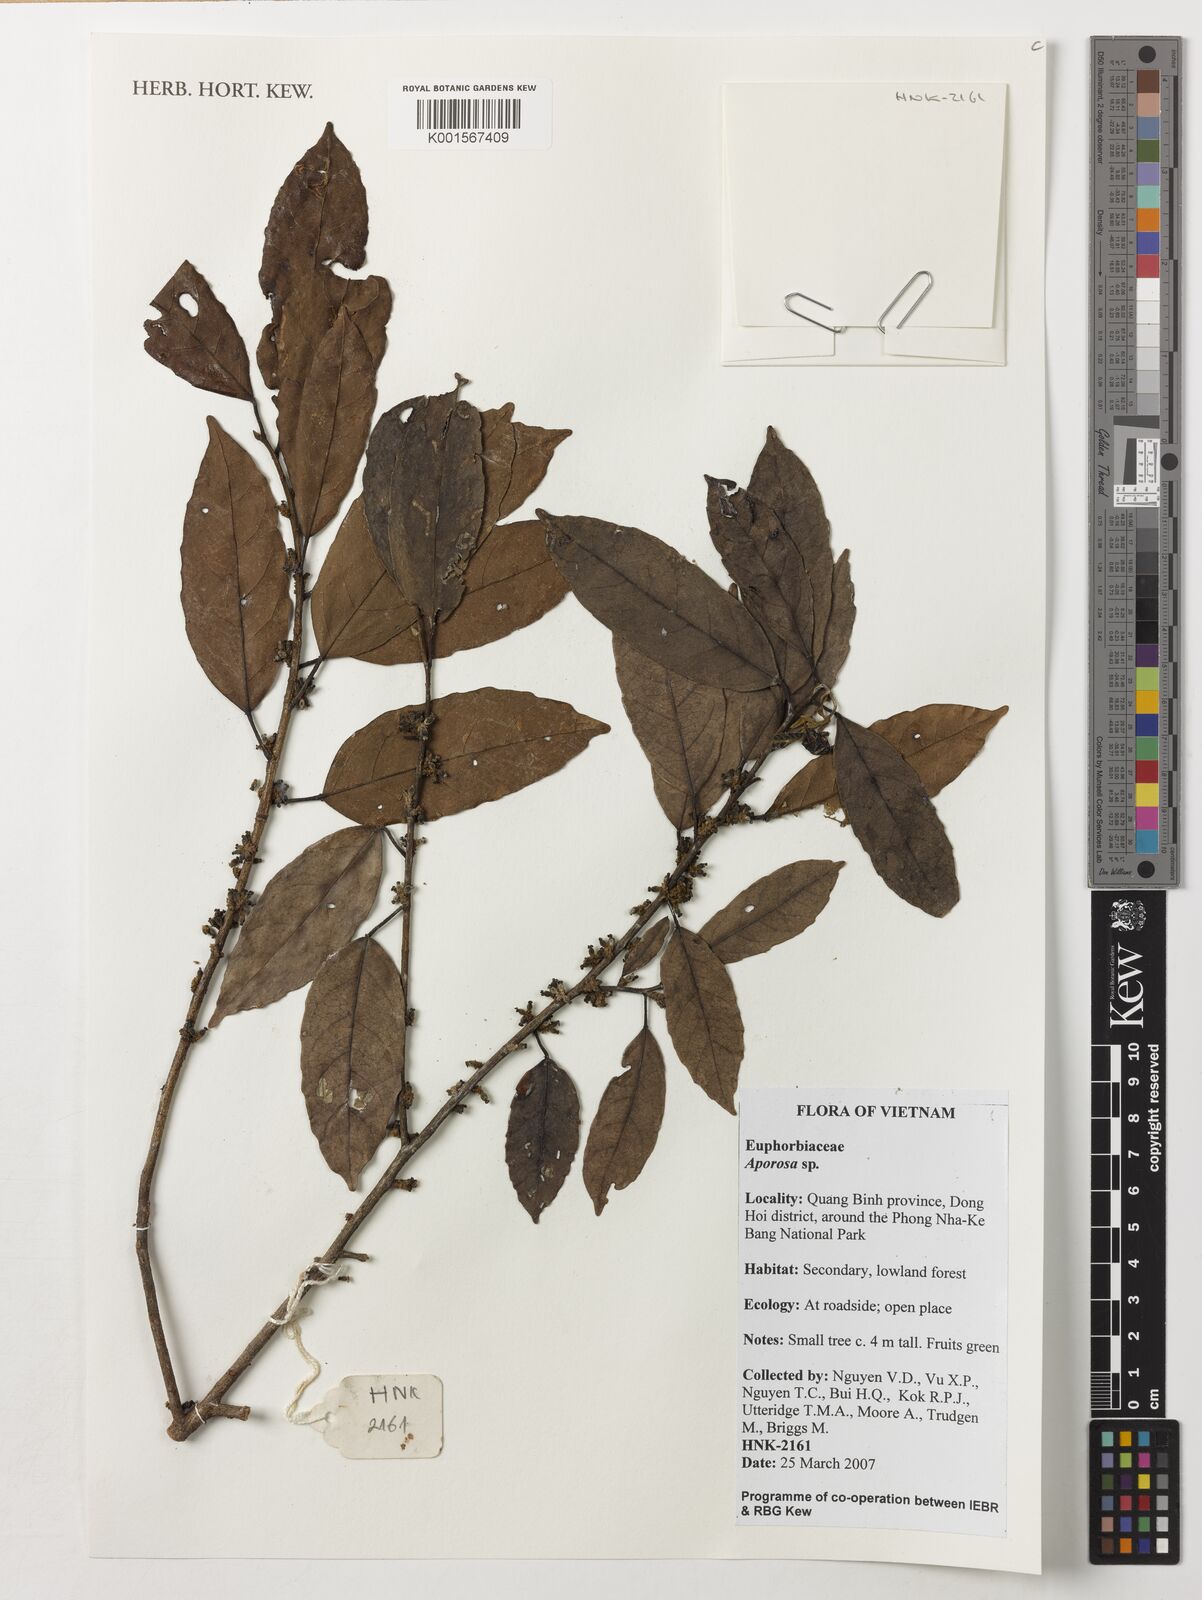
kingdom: Plantae
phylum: Tracheophyta
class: Magnoliopsida
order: Malpighiales
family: Phyllanthaceae
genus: Aporosa
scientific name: Aporosa
